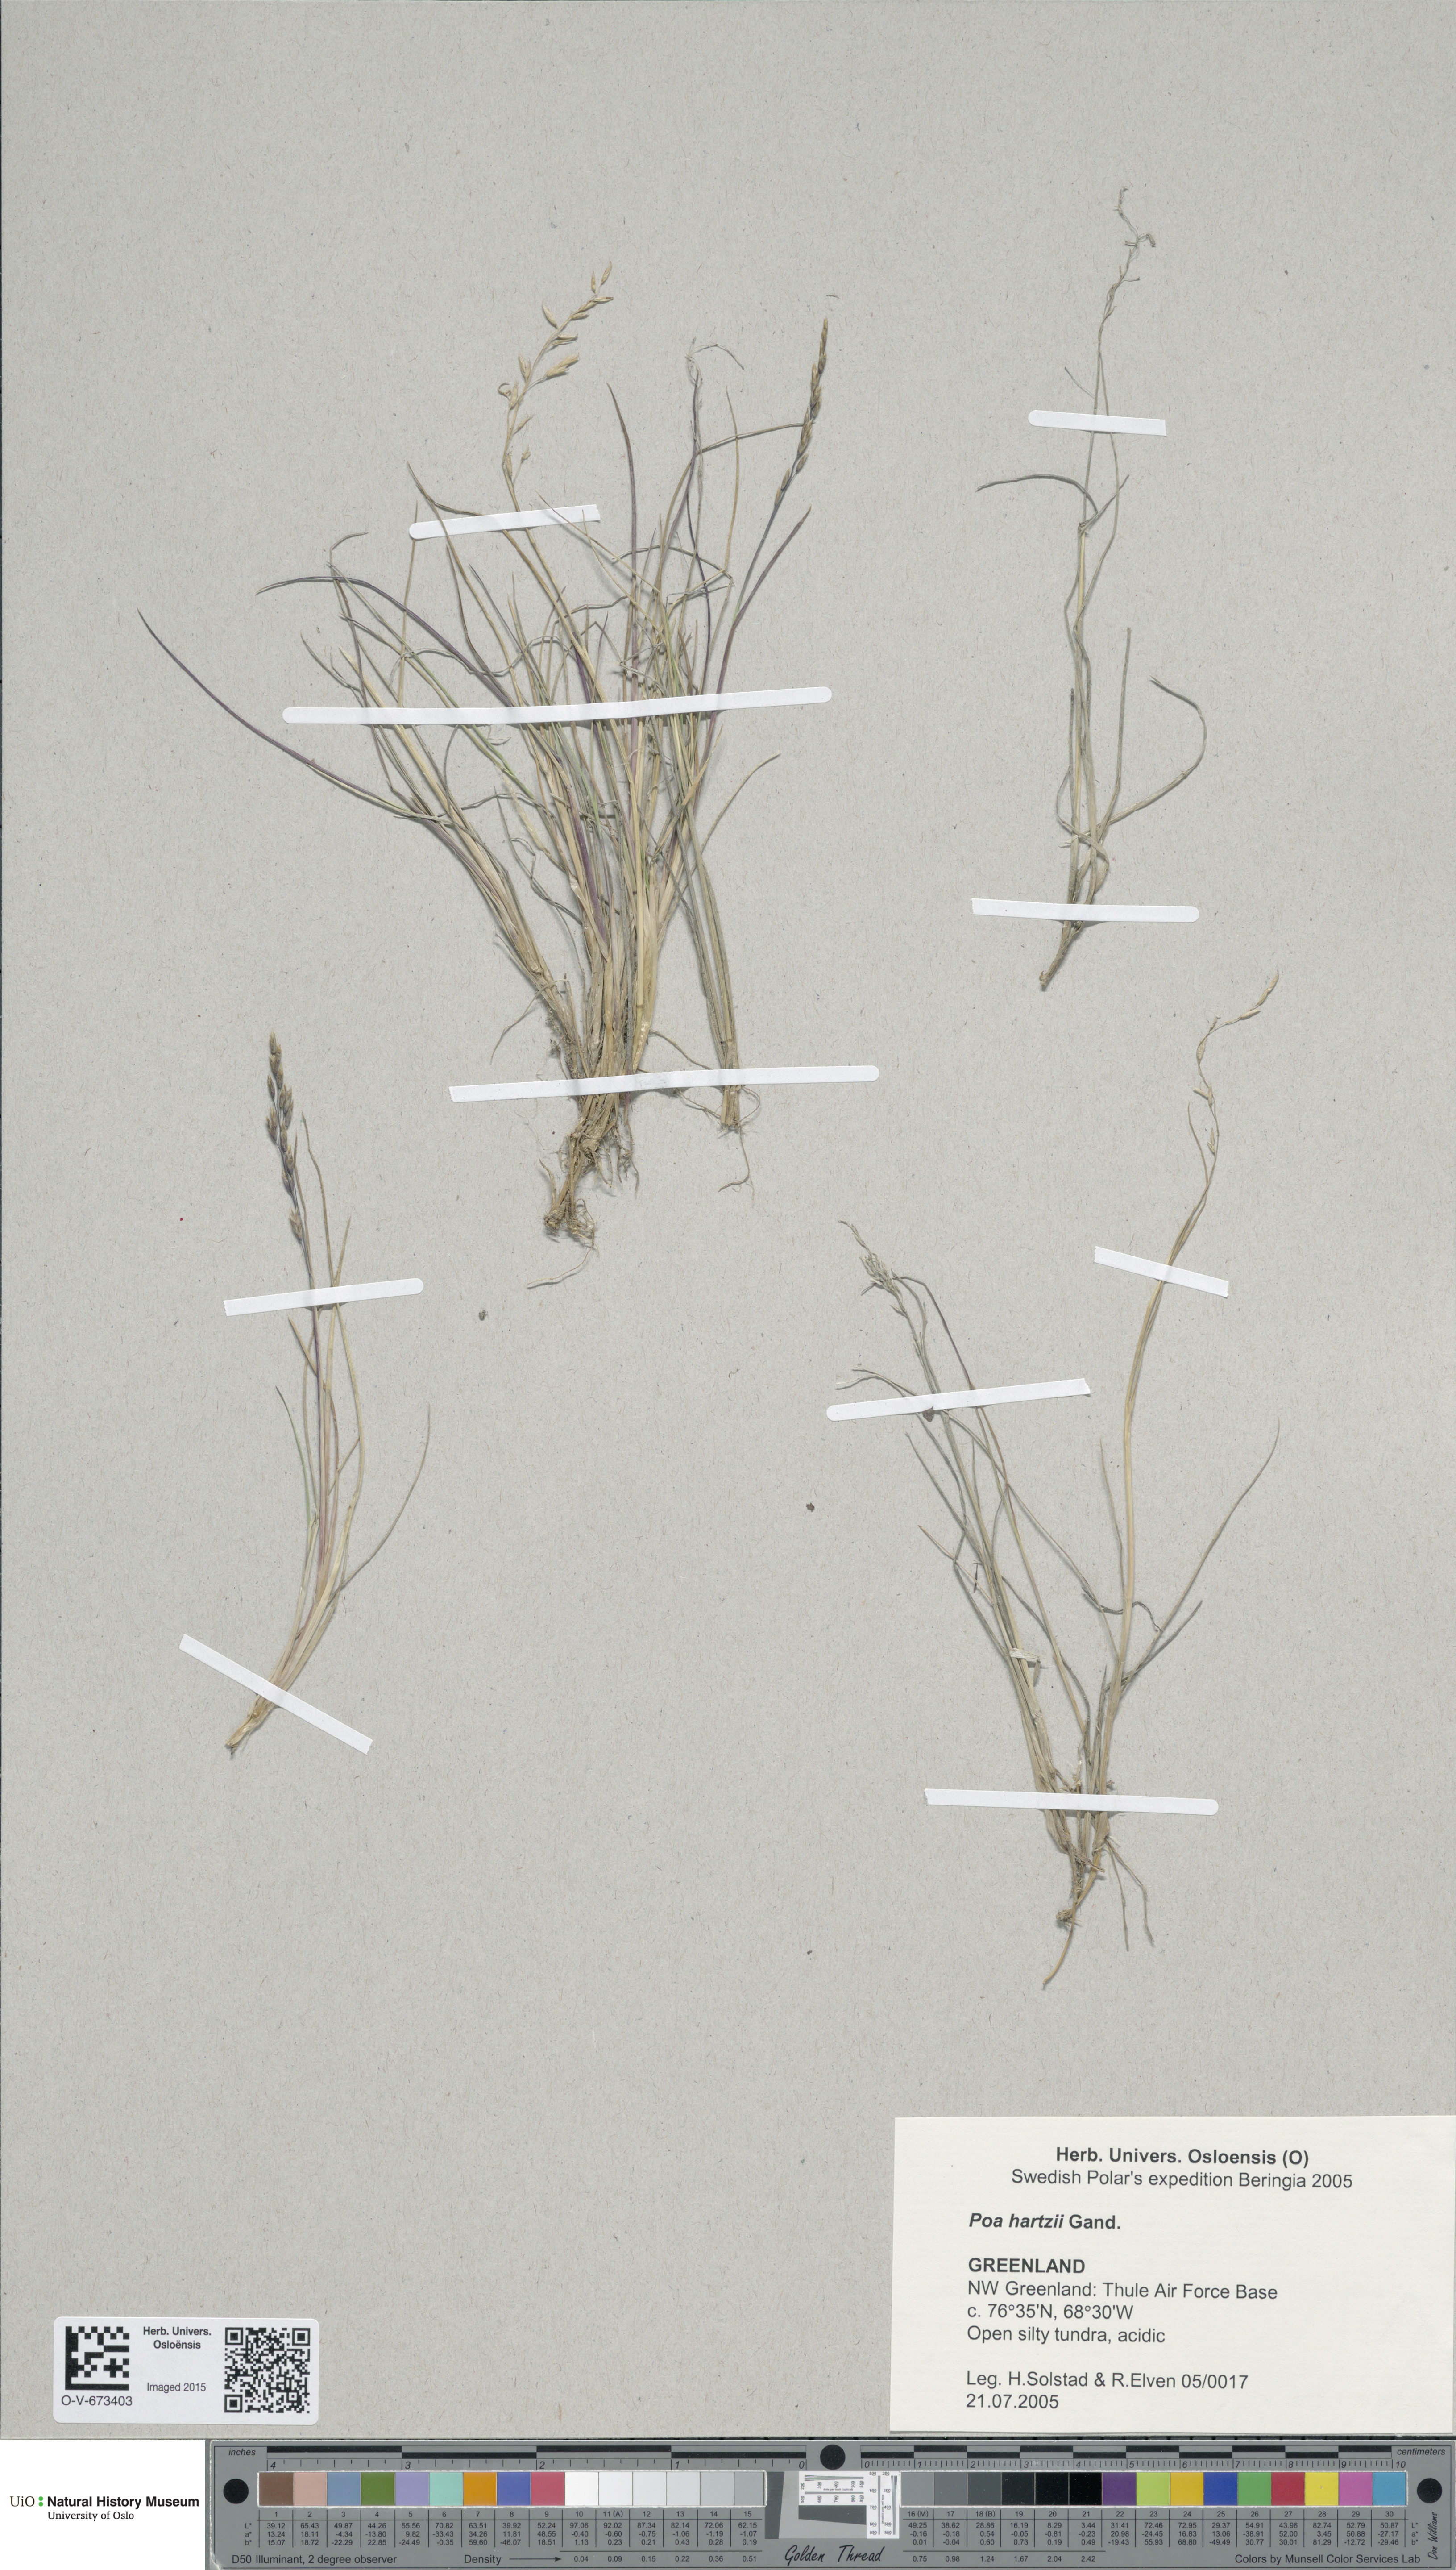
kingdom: Plantae
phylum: Tracheophyta
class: Liliopsida
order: Poales
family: Poaceae
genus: Poa
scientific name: Poa hartzii
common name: Hartz's bluegrass
